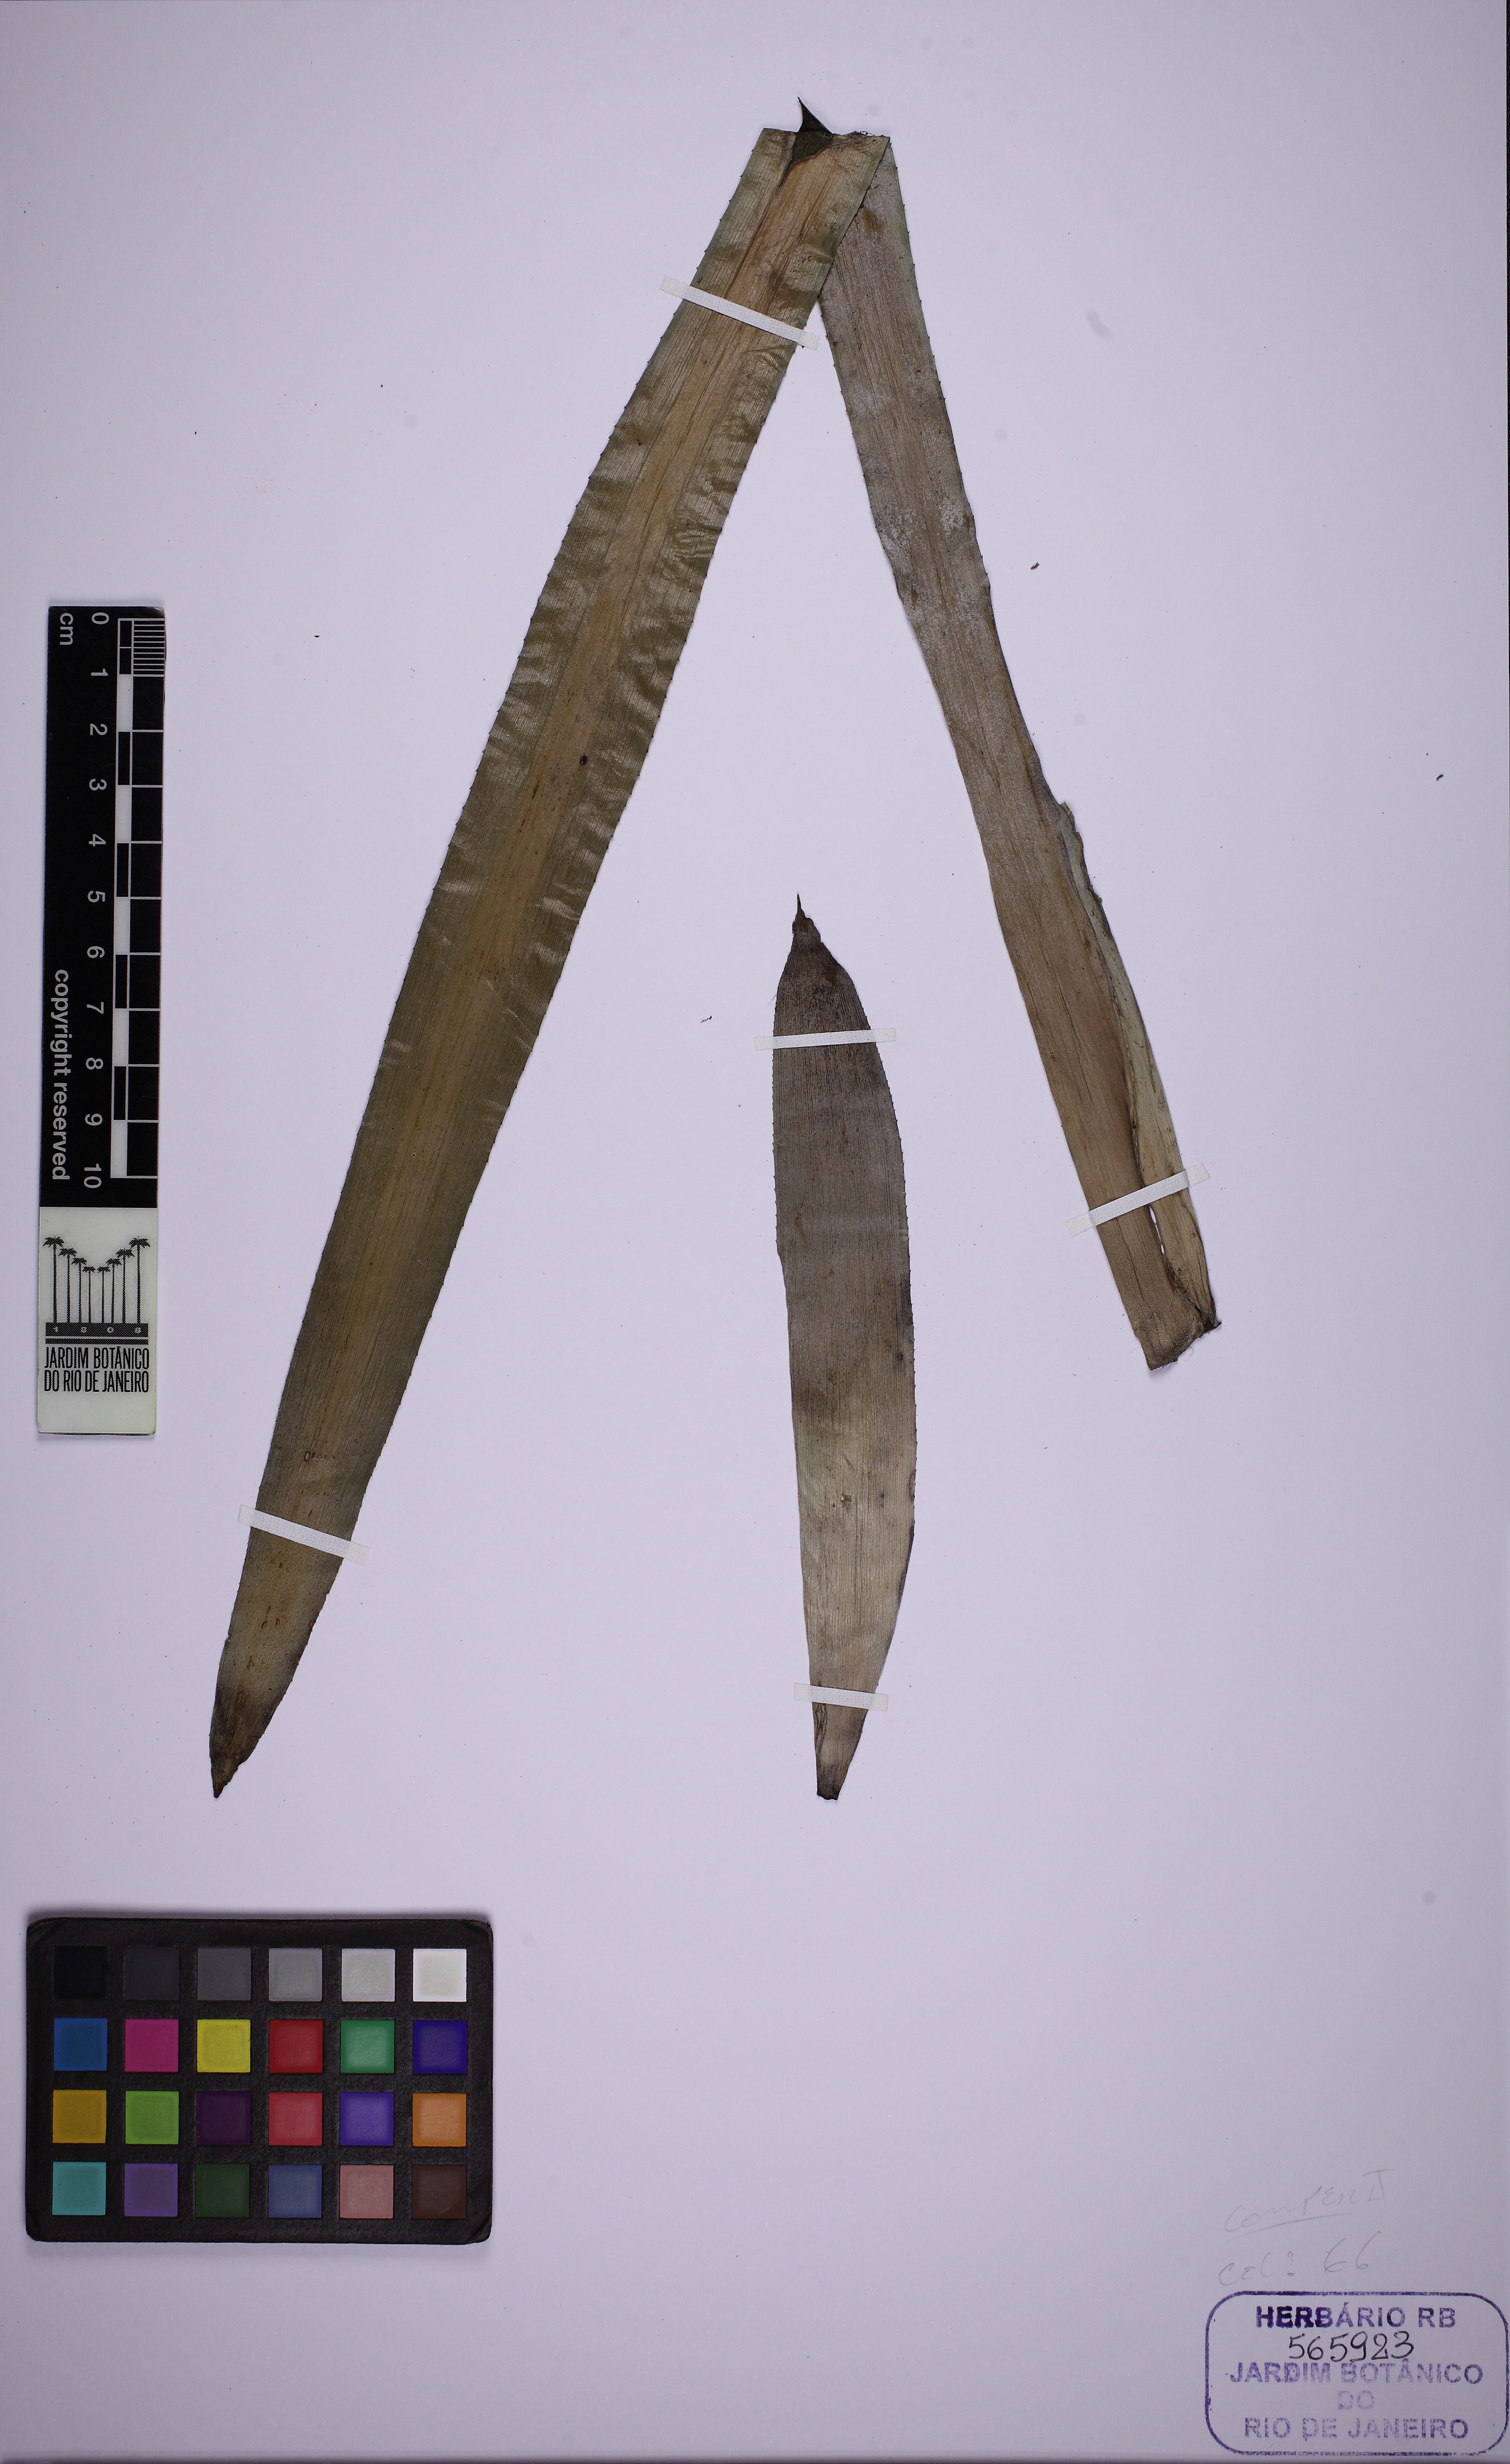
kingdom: Plantae
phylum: Tracheophyta
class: Liliopsida
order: Poales
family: Bromeliaceae
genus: Billbergia
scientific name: Billbergia euphemiae
